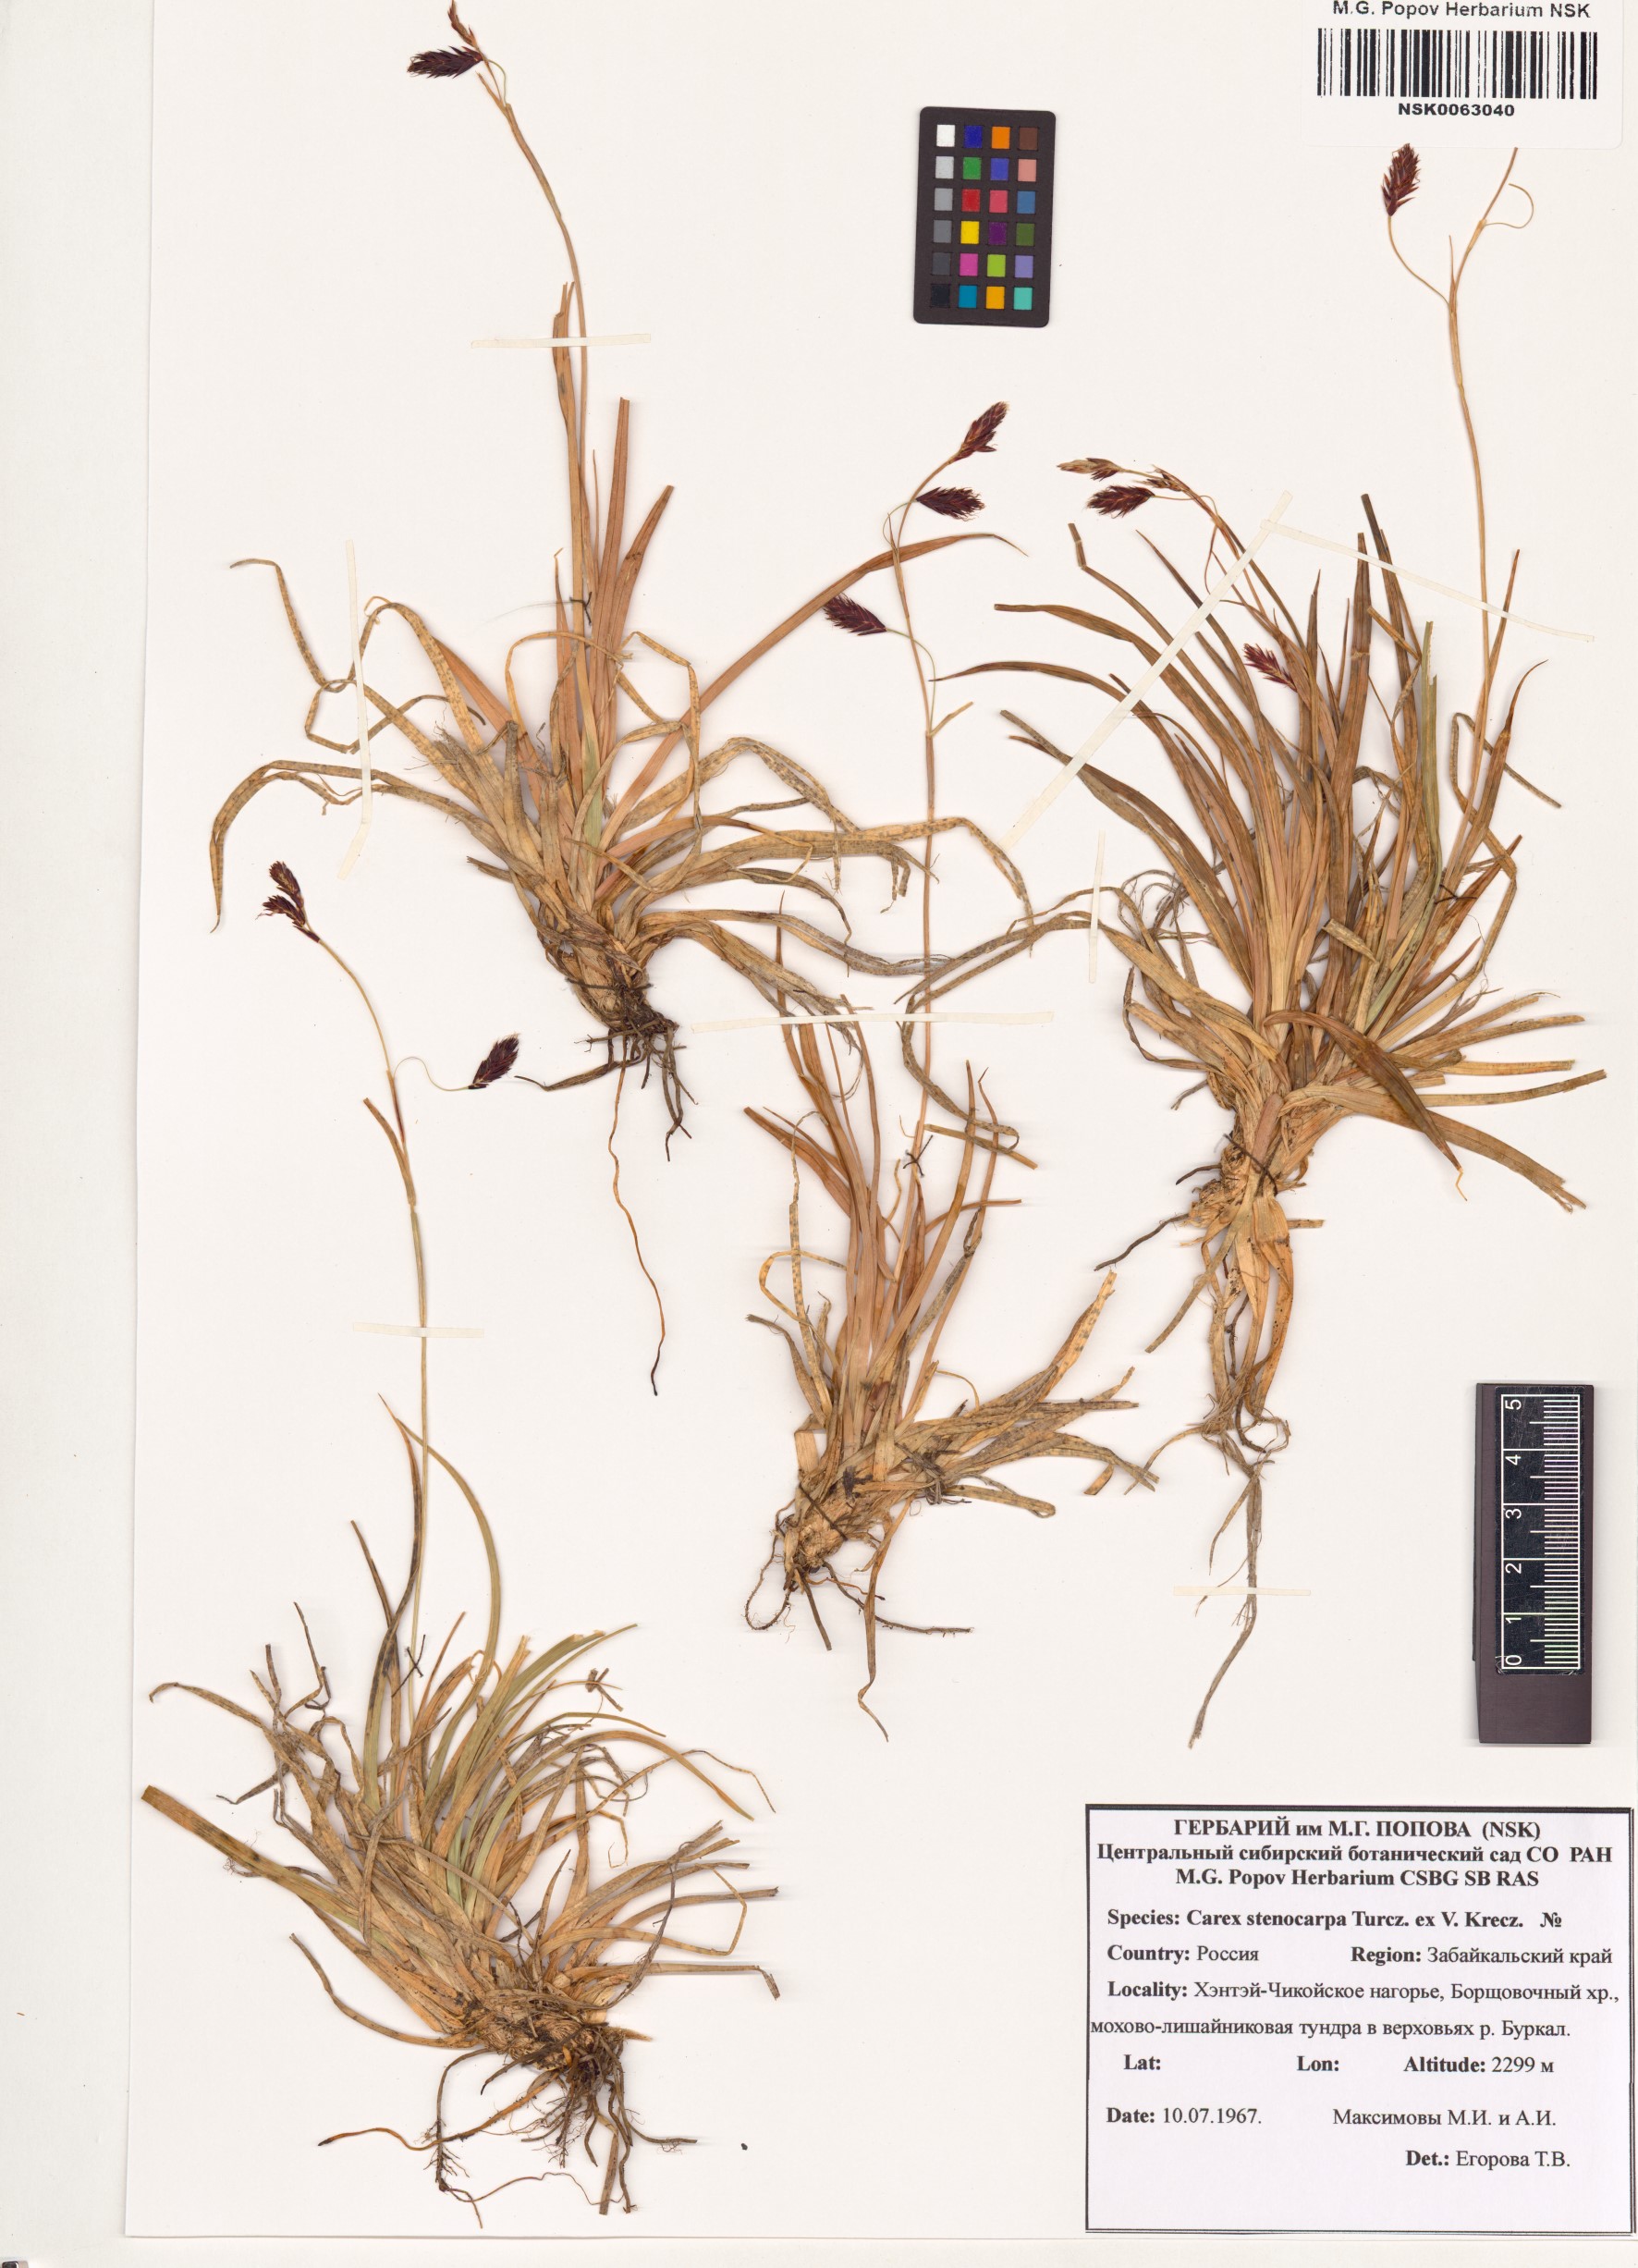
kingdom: Plantae
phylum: Tracheophyta
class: Liliopsida
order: Poales
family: Cyperaceae
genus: Carex
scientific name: Carex stenocarpa
